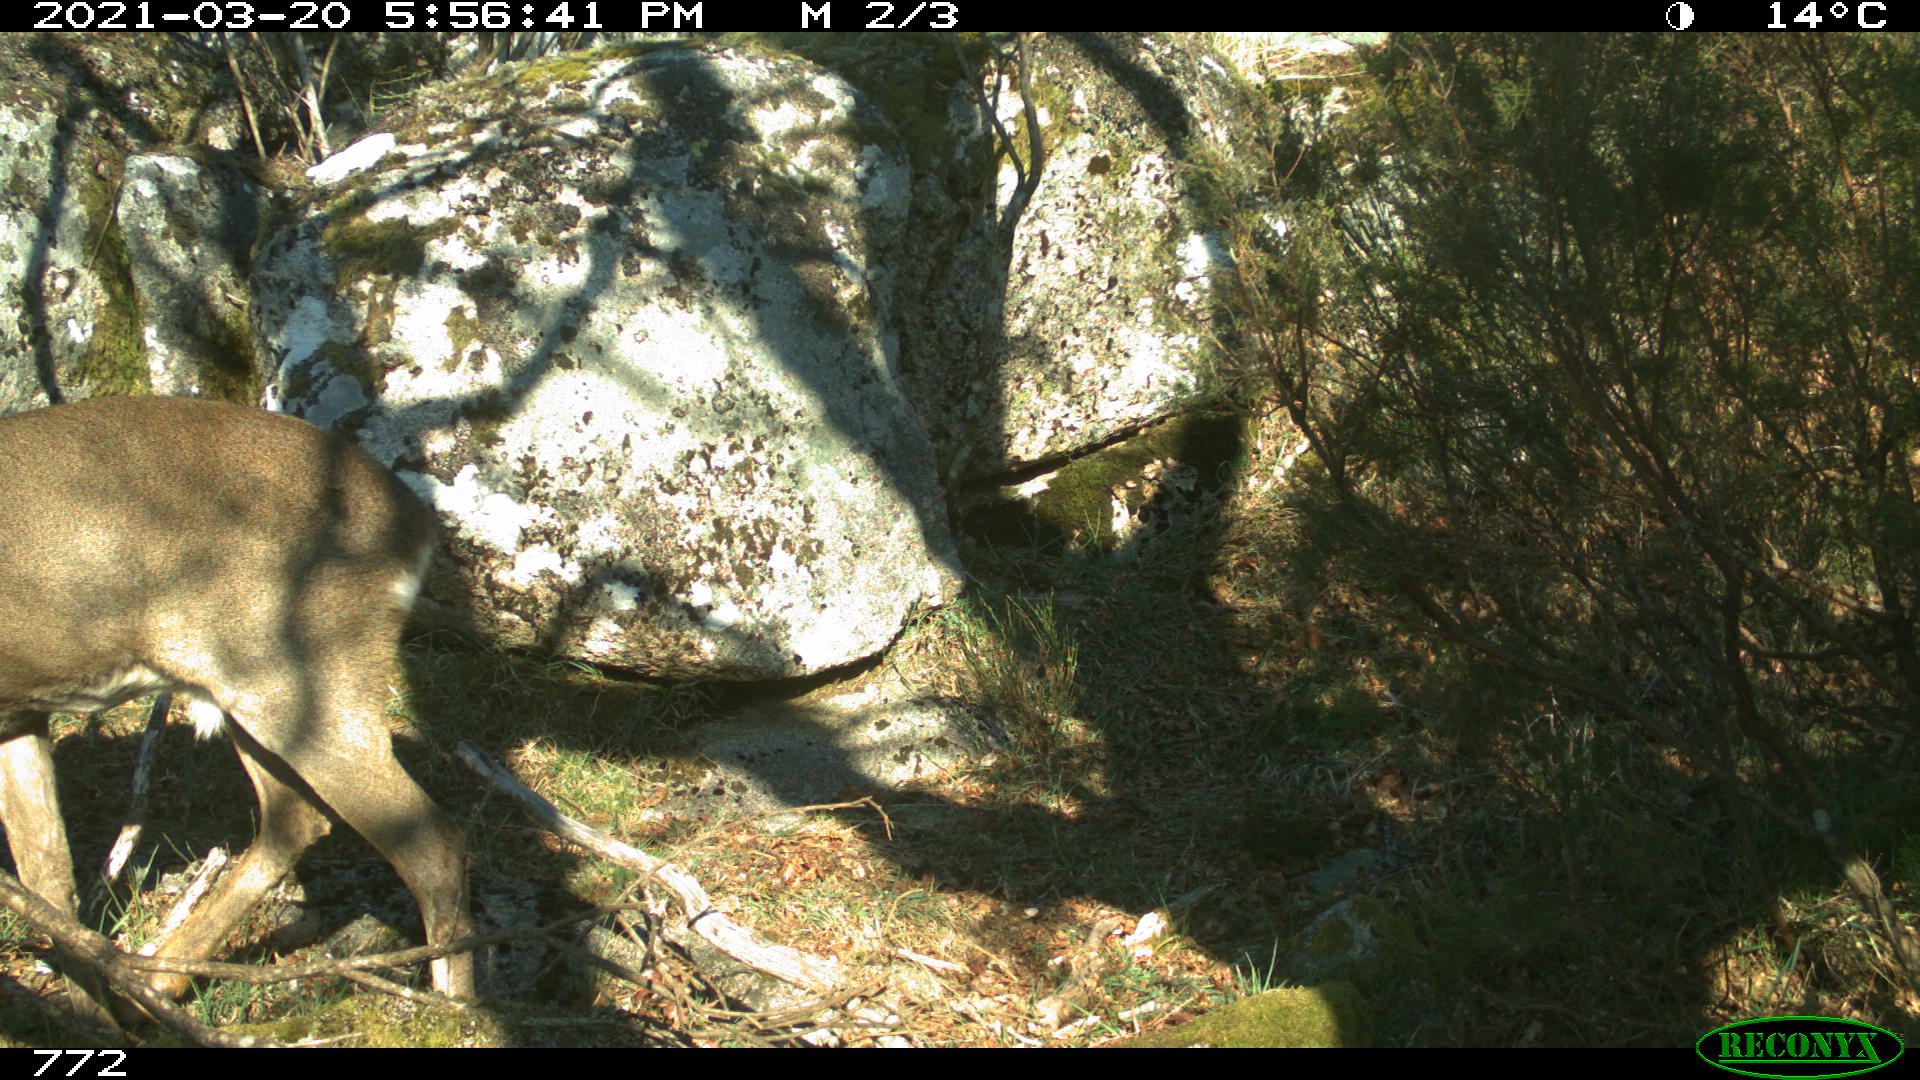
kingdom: Animalia
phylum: Chordata
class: Mammalia
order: Artiodactyla
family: Cervidae
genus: Capreolus
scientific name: Capreolus capreolus
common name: Western roe deer
